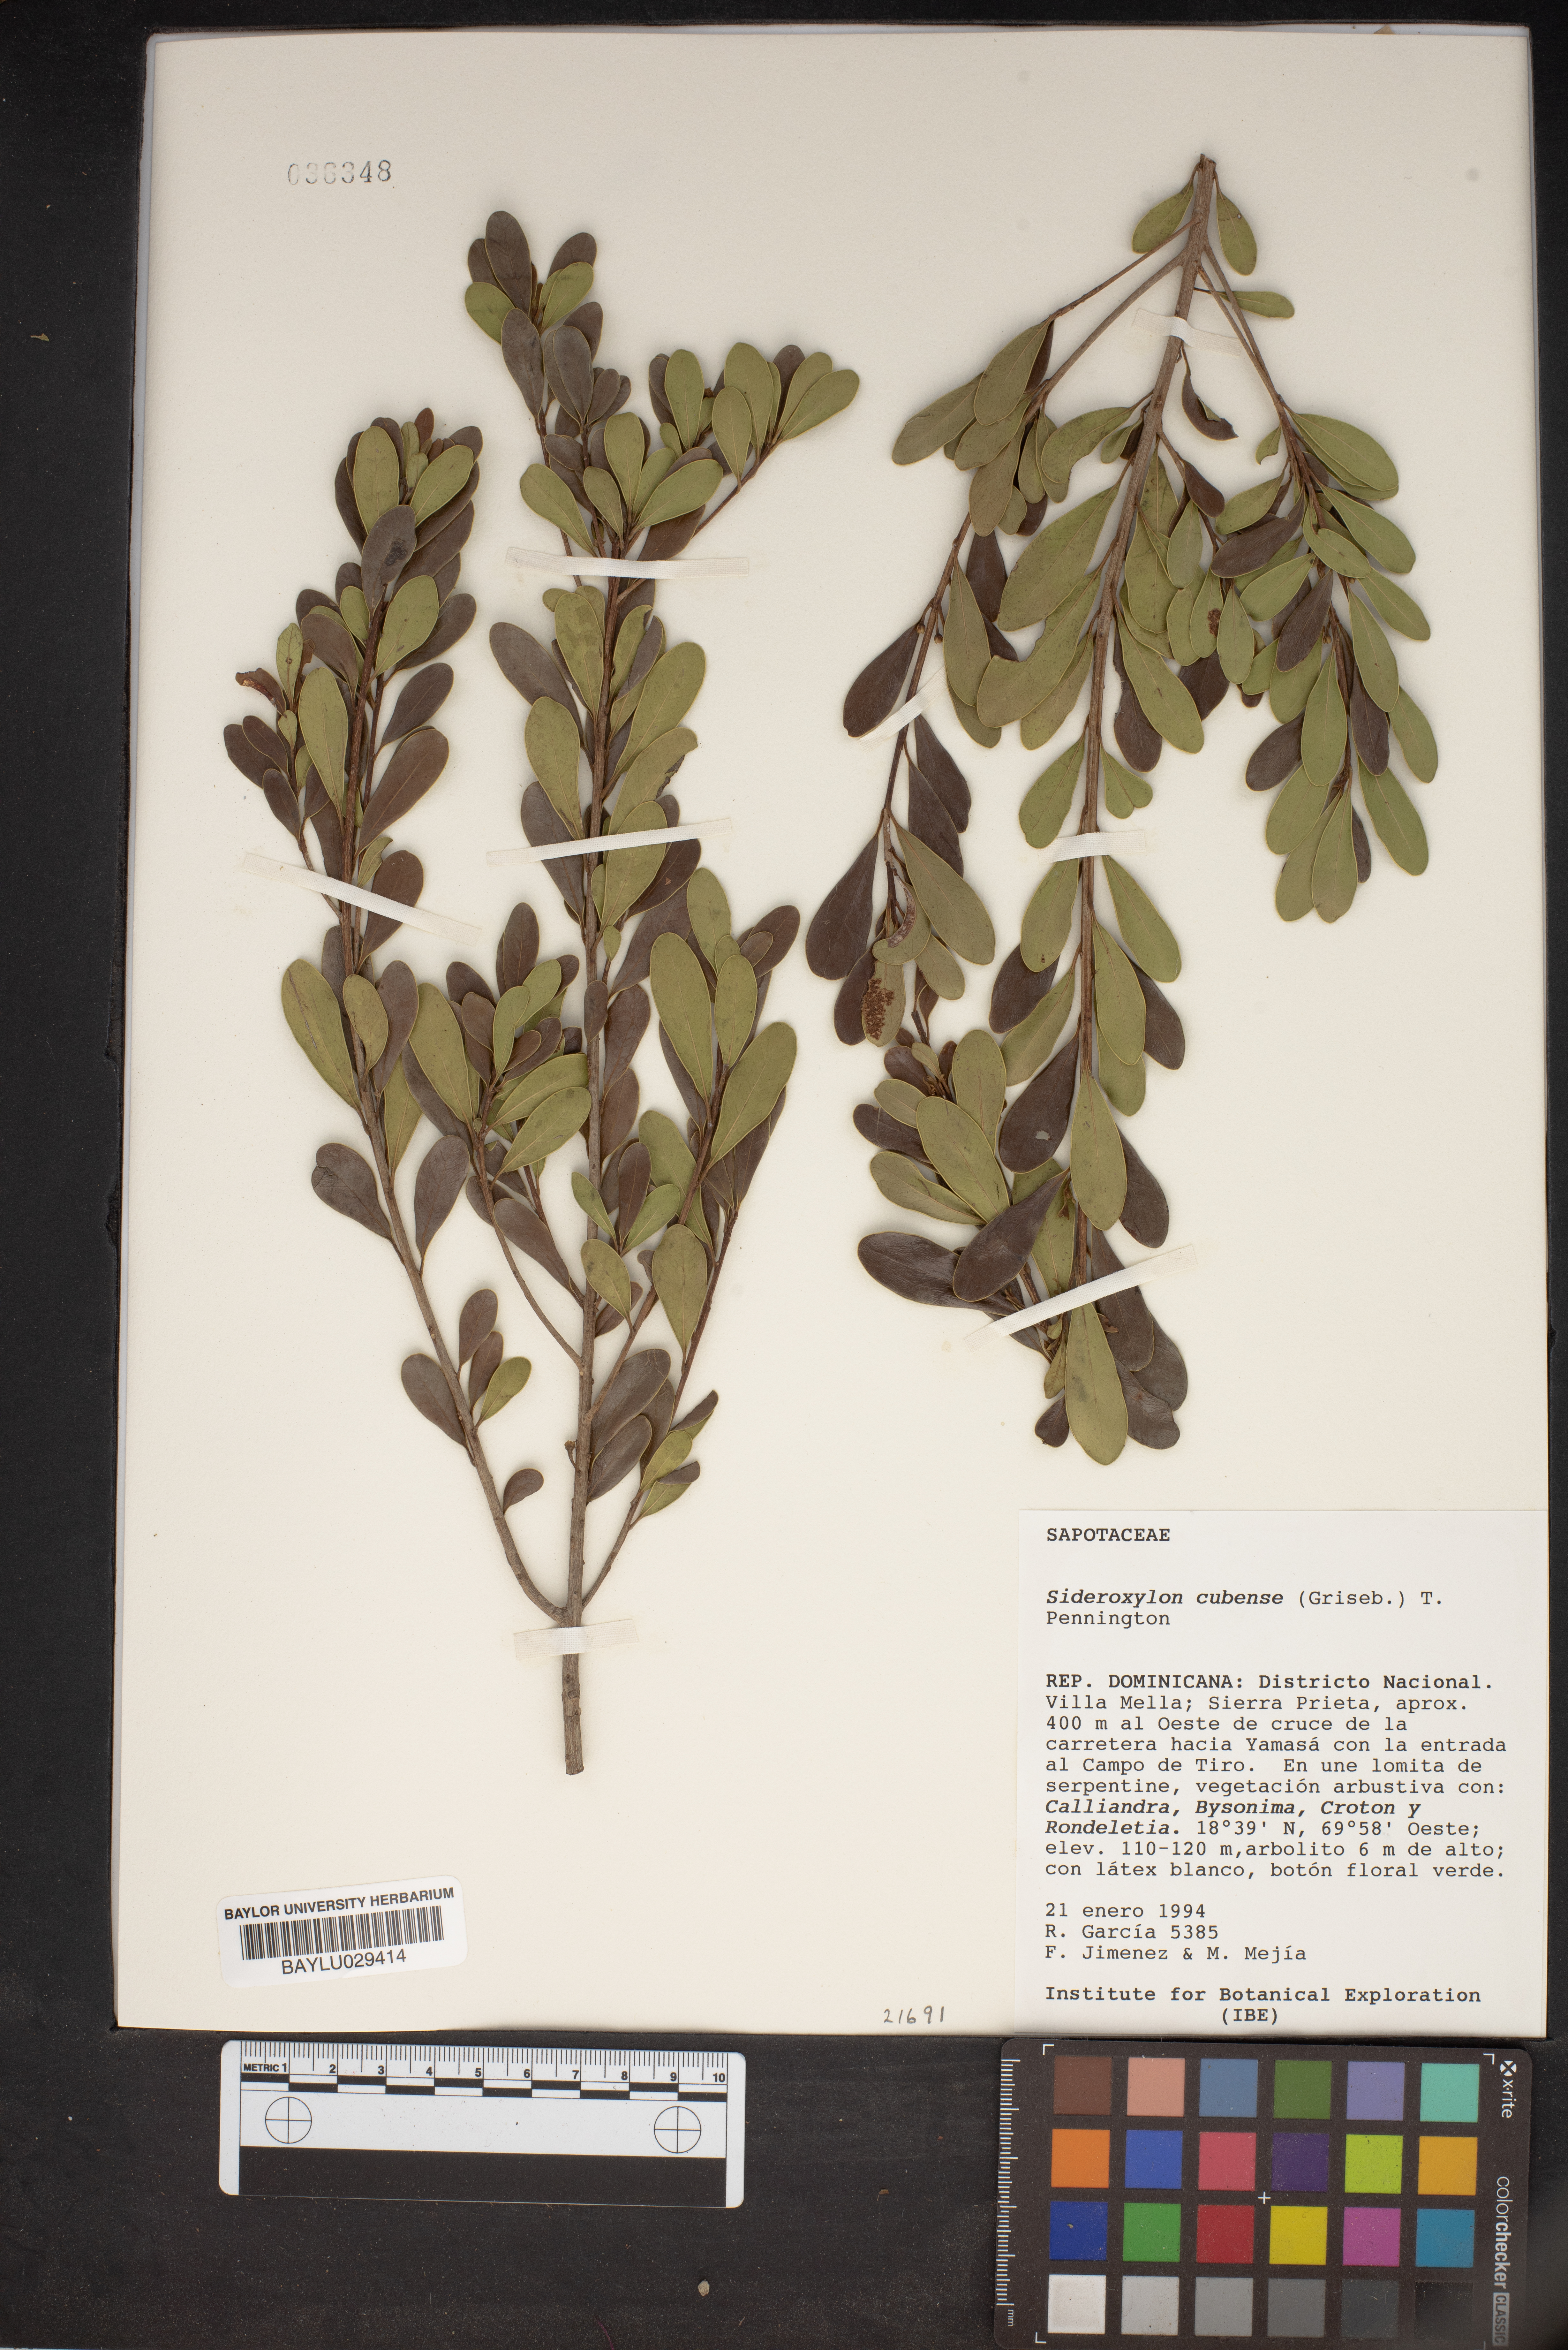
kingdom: Plantae
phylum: Tracheophyta
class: Magnoliopsida
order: Ericales
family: Sapotaceae
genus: Sideroxylon
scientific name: Sideroxylon cubense
